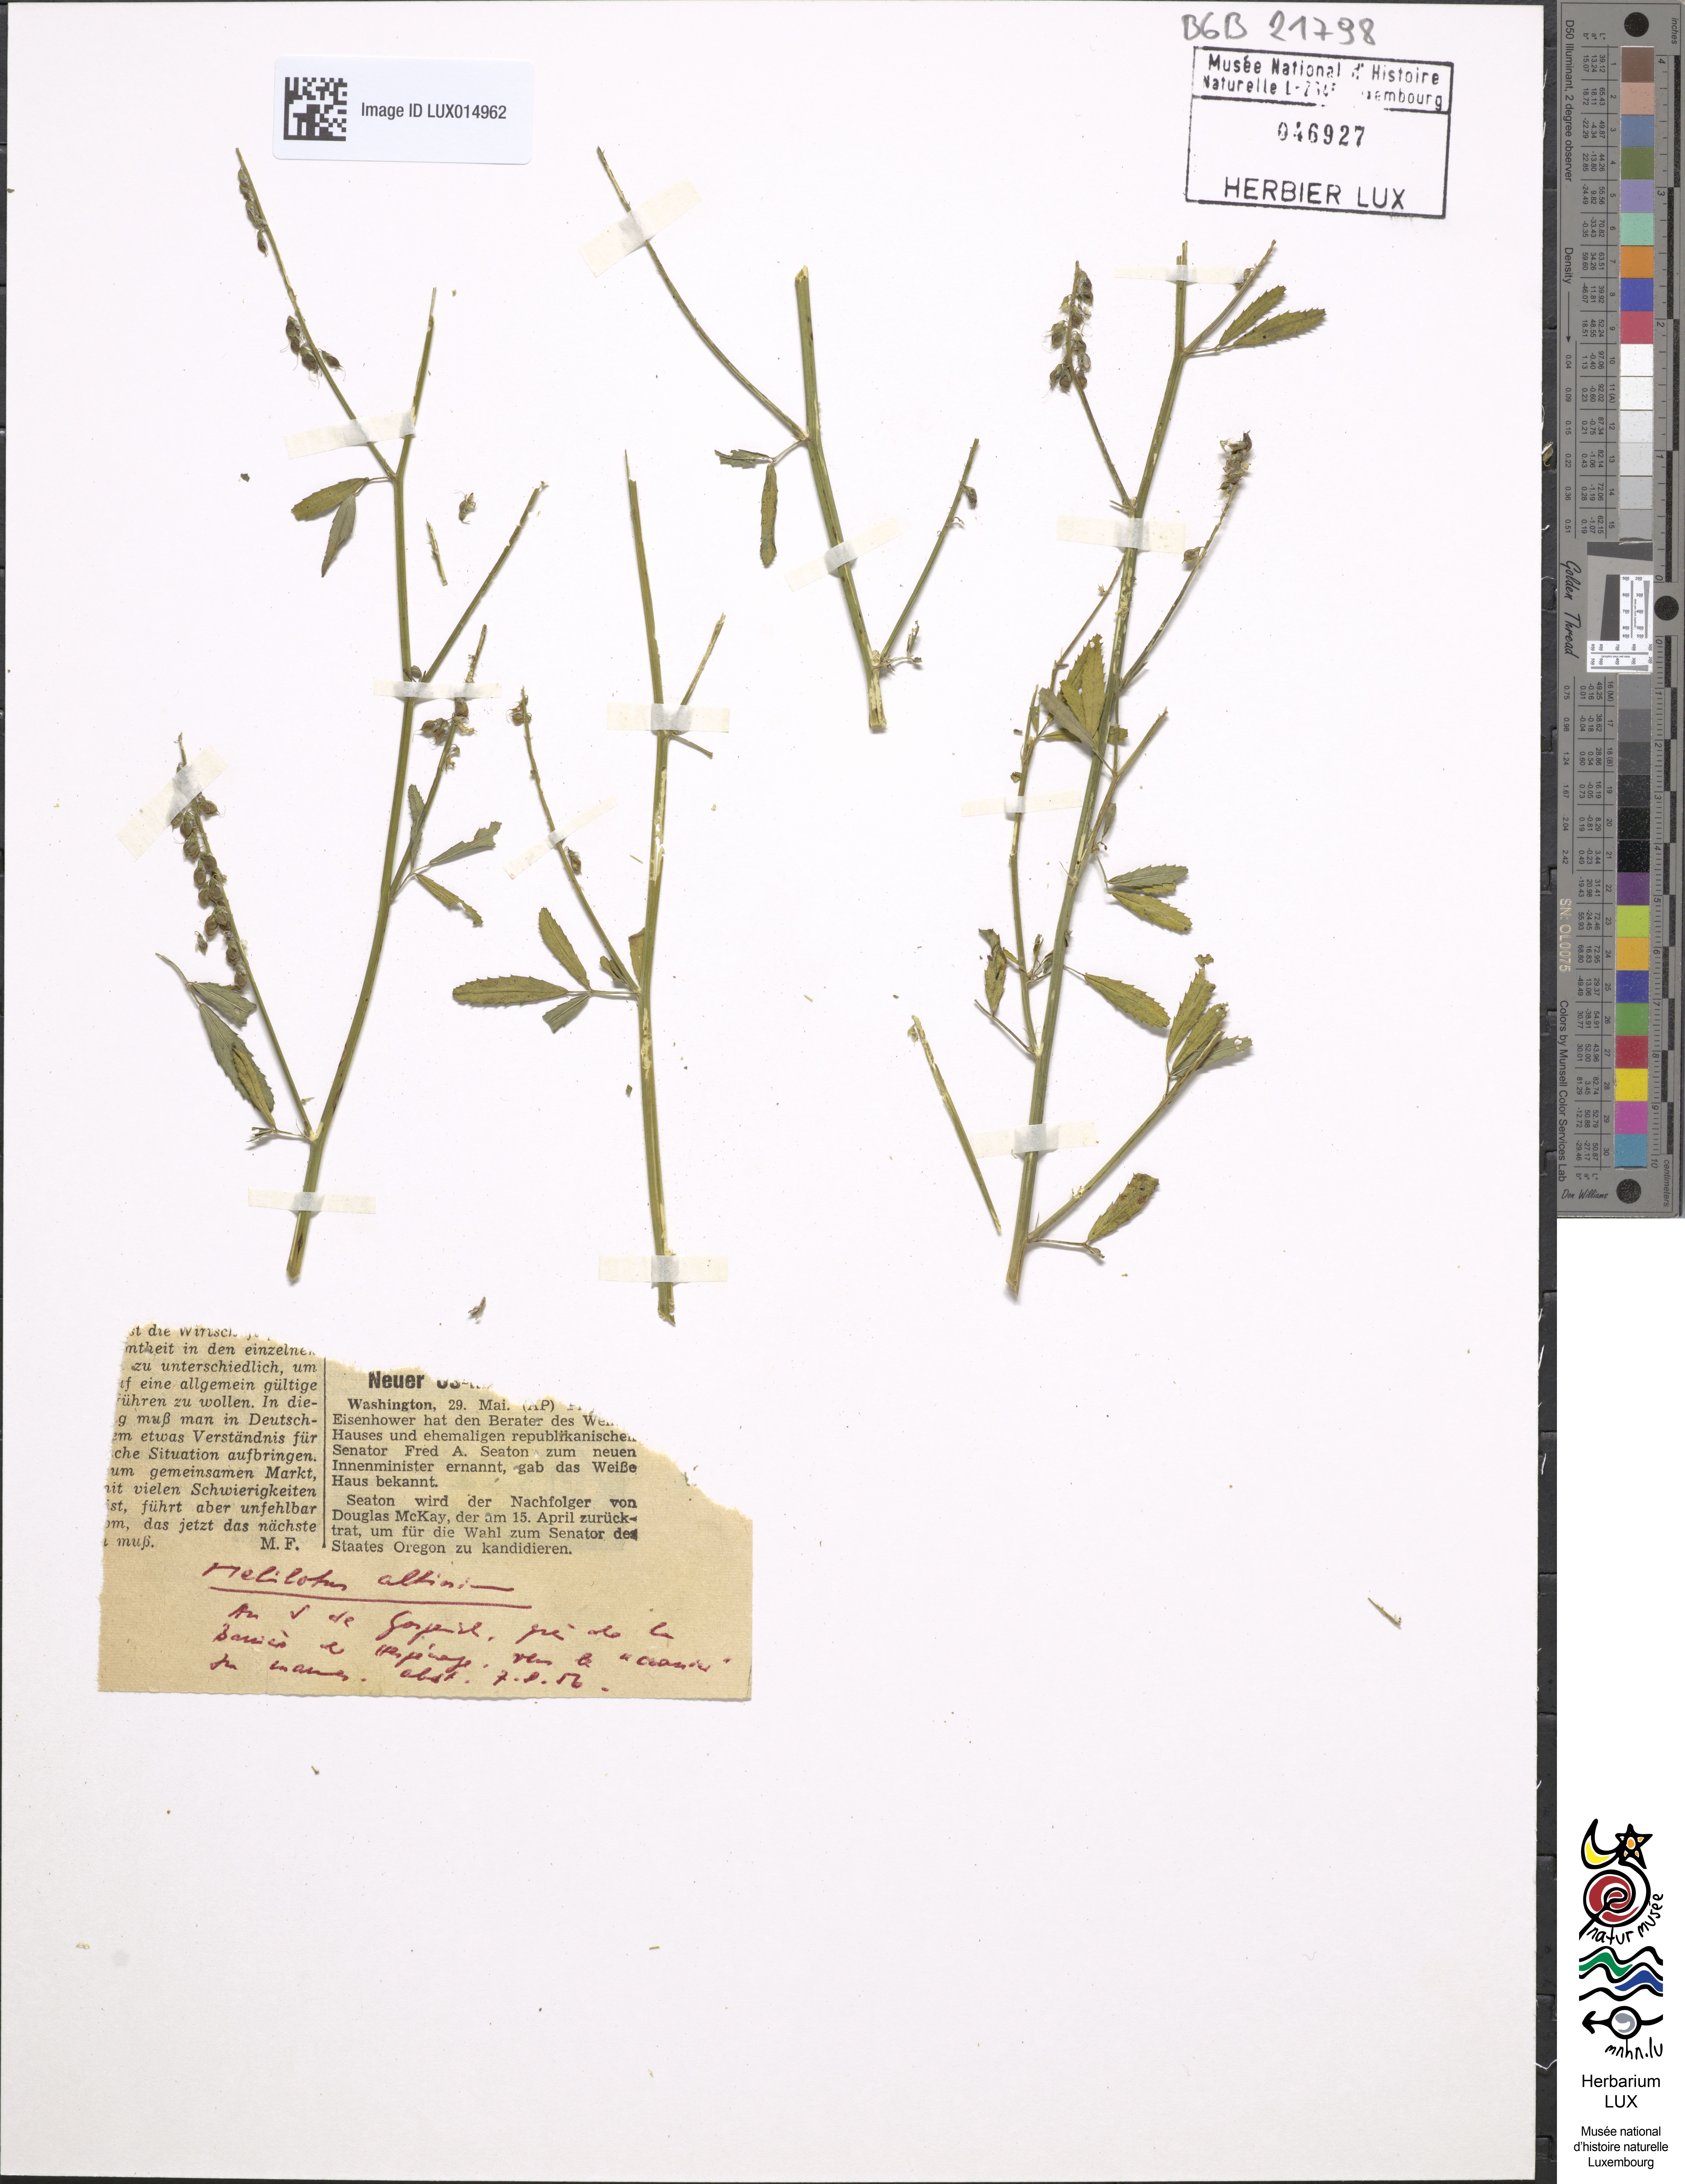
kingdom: Plantae
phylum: Tracheophyta
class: Magnoliopsida
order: Fabales
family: Fabaceae
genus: Melilotus
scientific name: Melilotus altissimus
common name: Tall melilot
